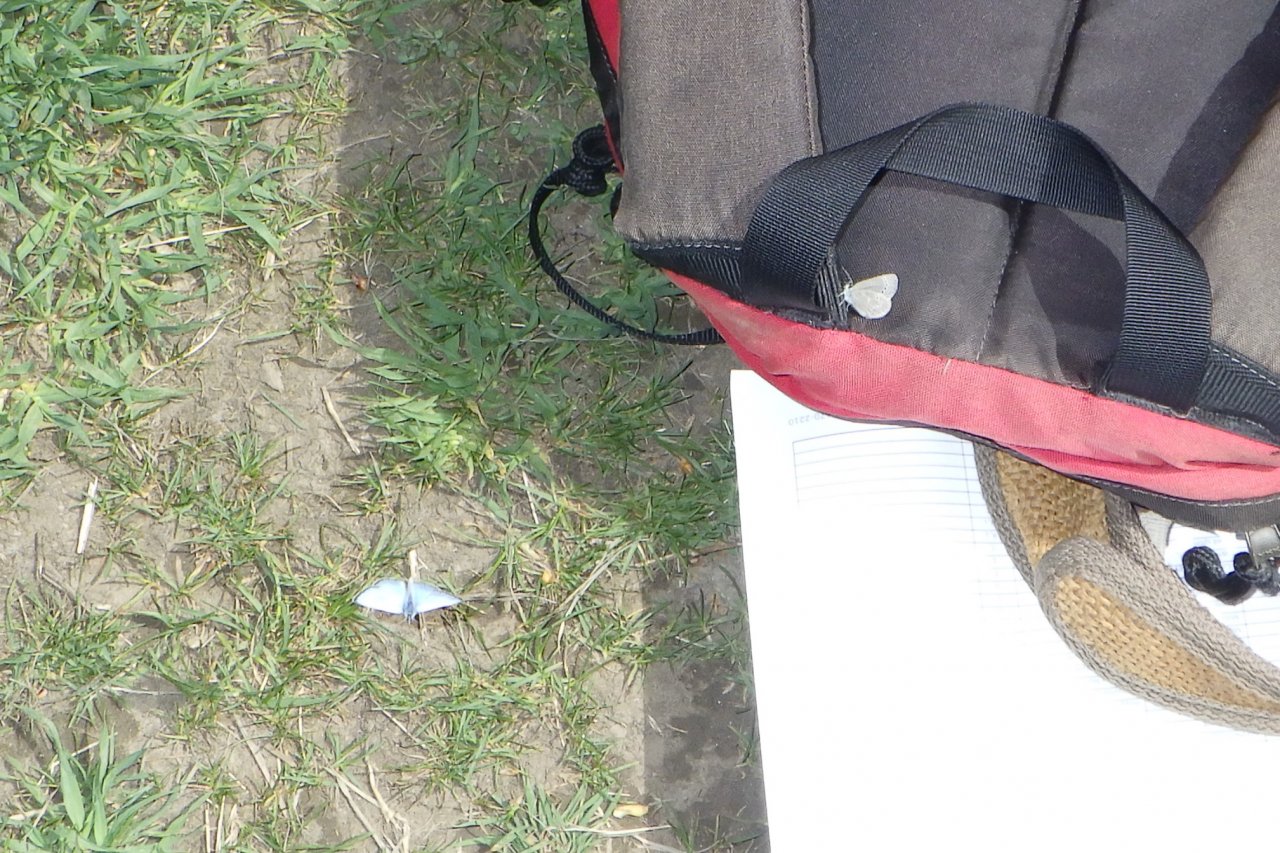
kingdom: Animalia
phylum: Arthropoda
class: Insecta
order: Lepidoptera
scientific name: Lepidoptera
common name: Butterflies
